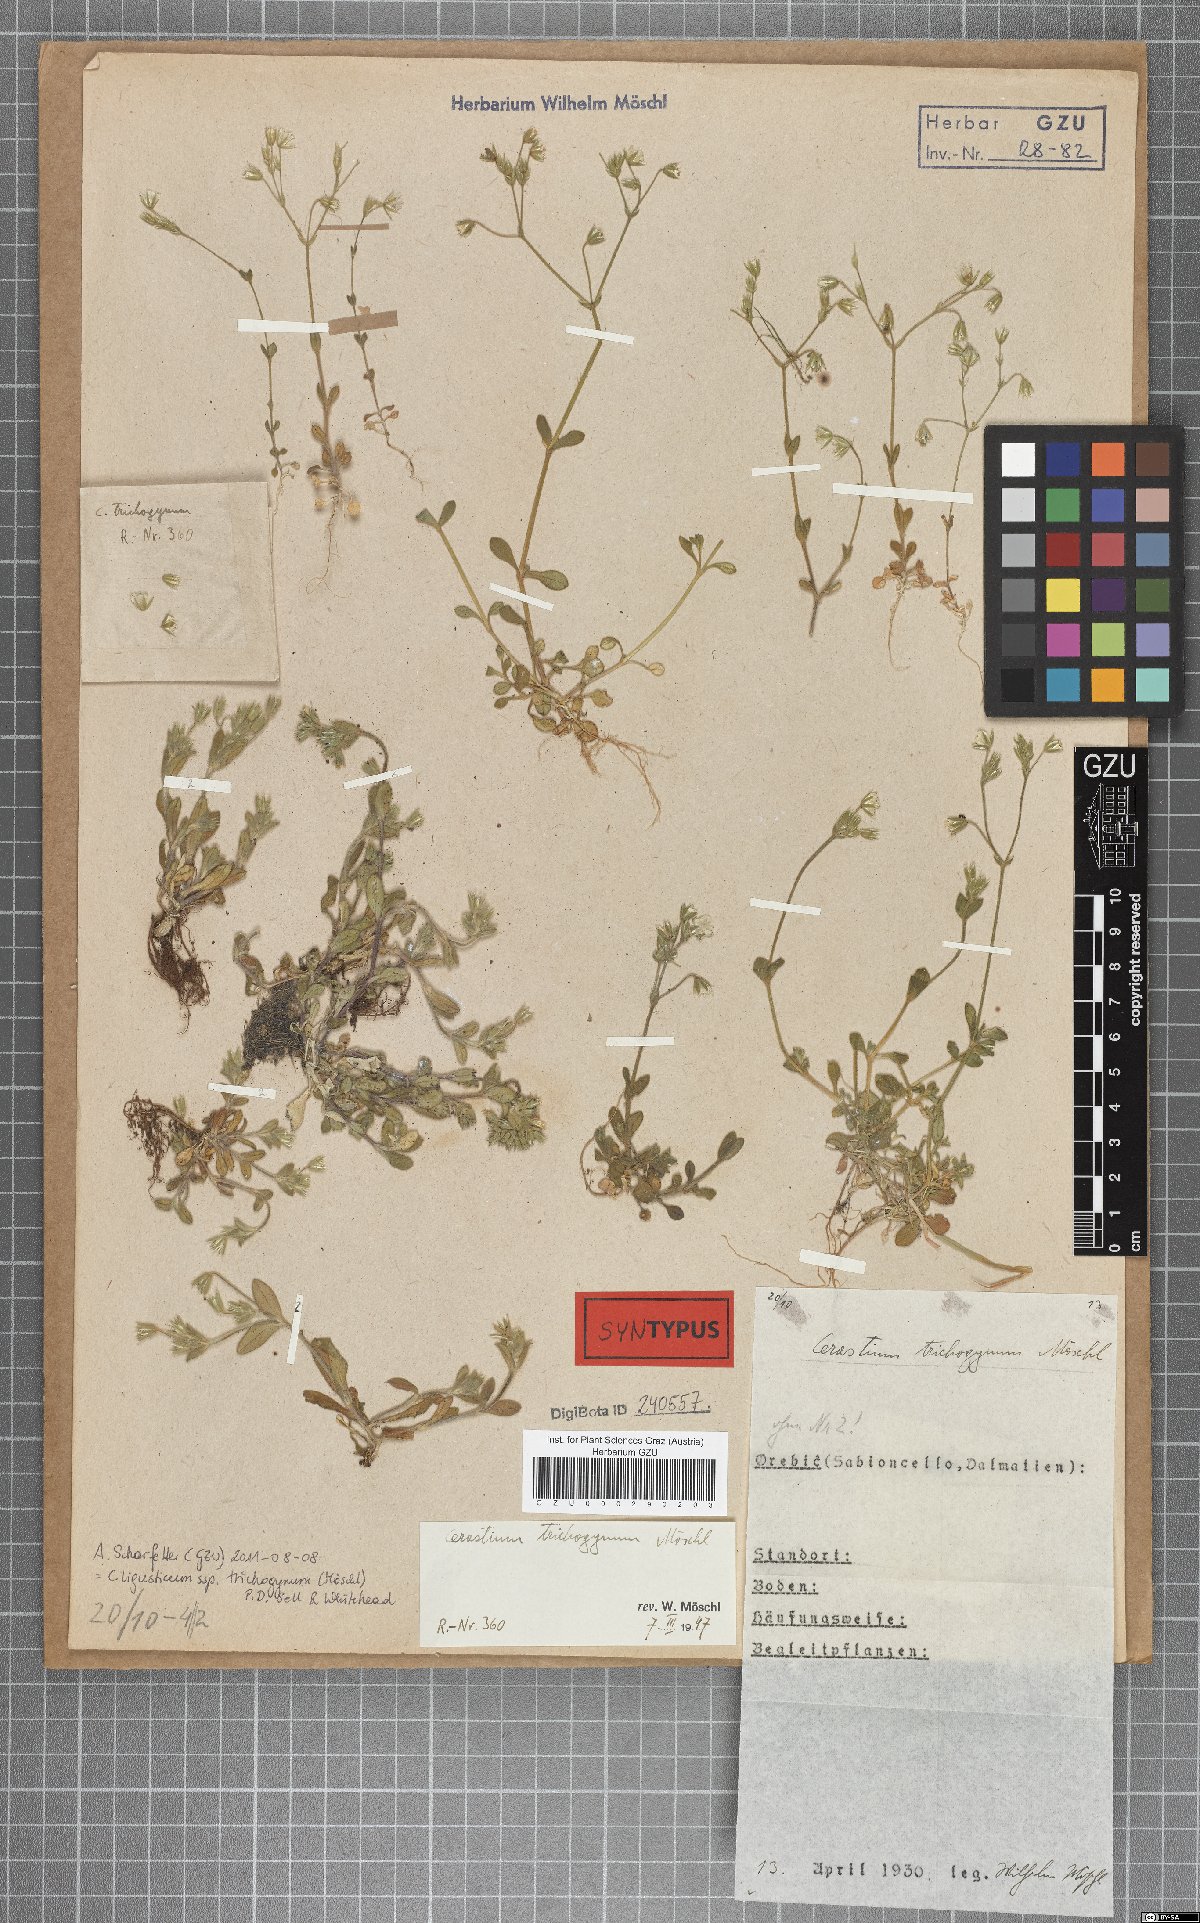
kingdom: Plantae
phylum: Tracheophyta
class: Magnoliopsida
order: Caryophyllales
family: Caryophyllaceae
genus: Cerastium
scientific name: Cerastium ligusticum
